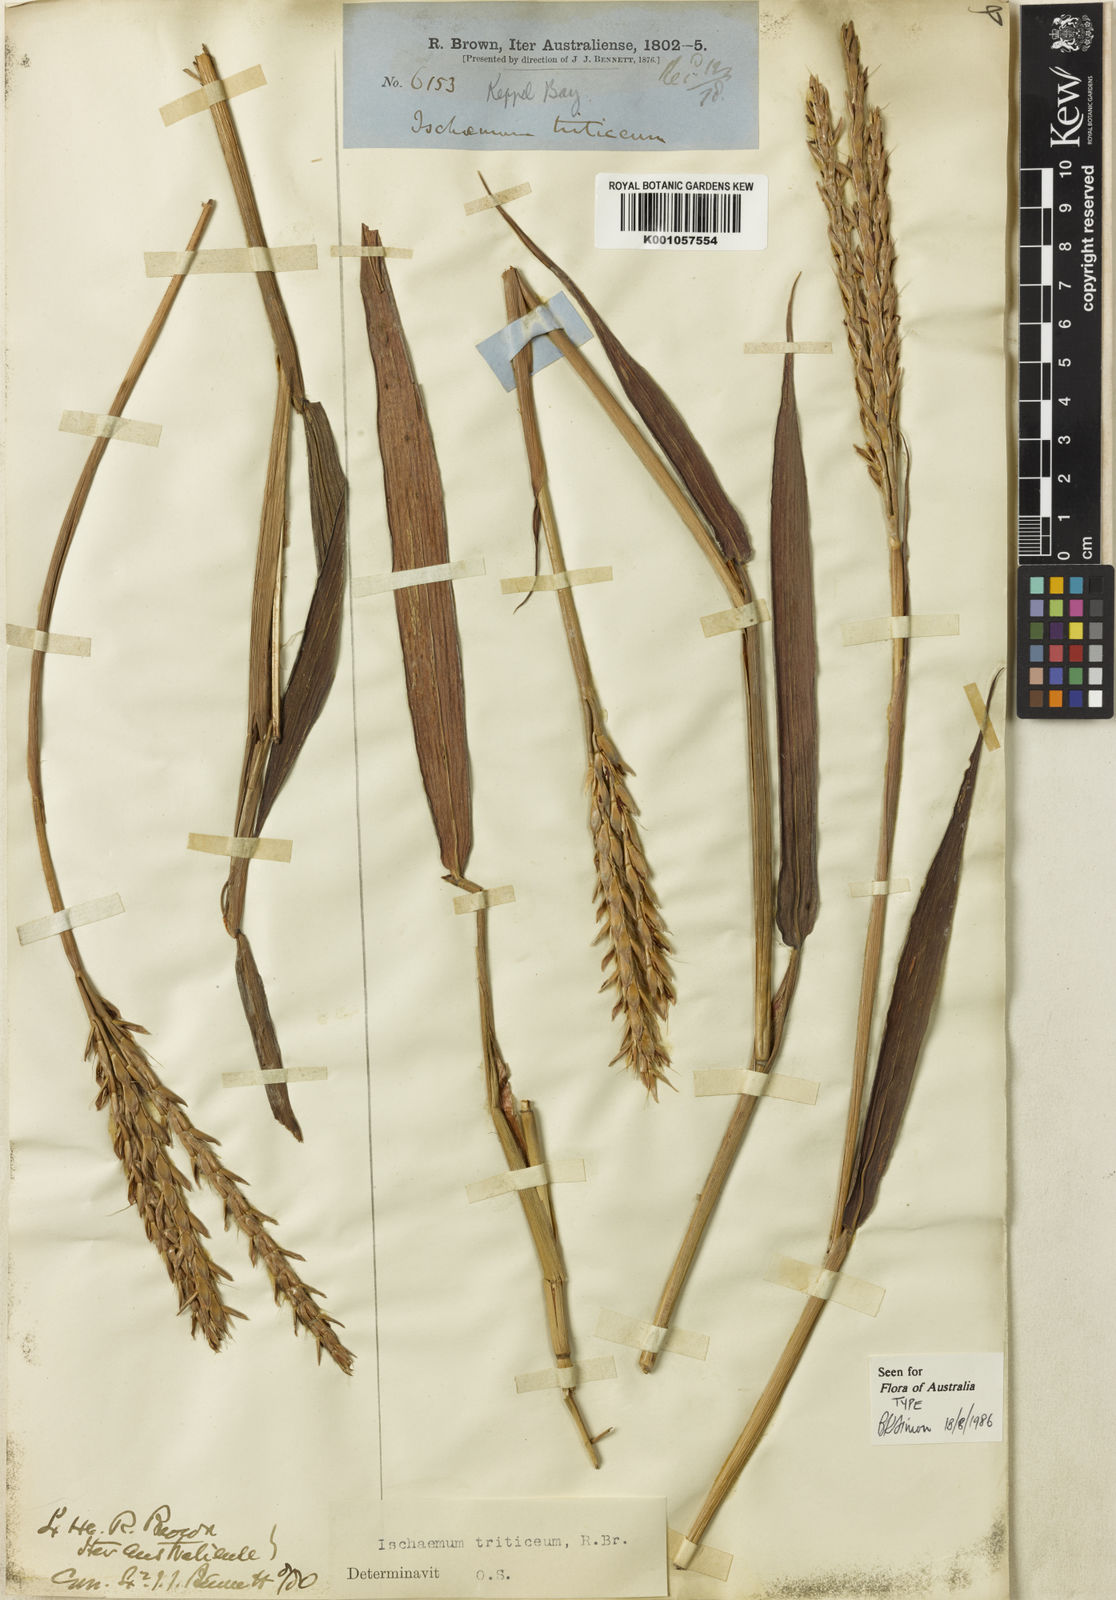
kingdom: Plantae
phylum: Tracheophyta
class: Liliopsida
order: Poales
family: Poaceae
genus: Ischaemum
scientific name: Ischaemum triticeum
